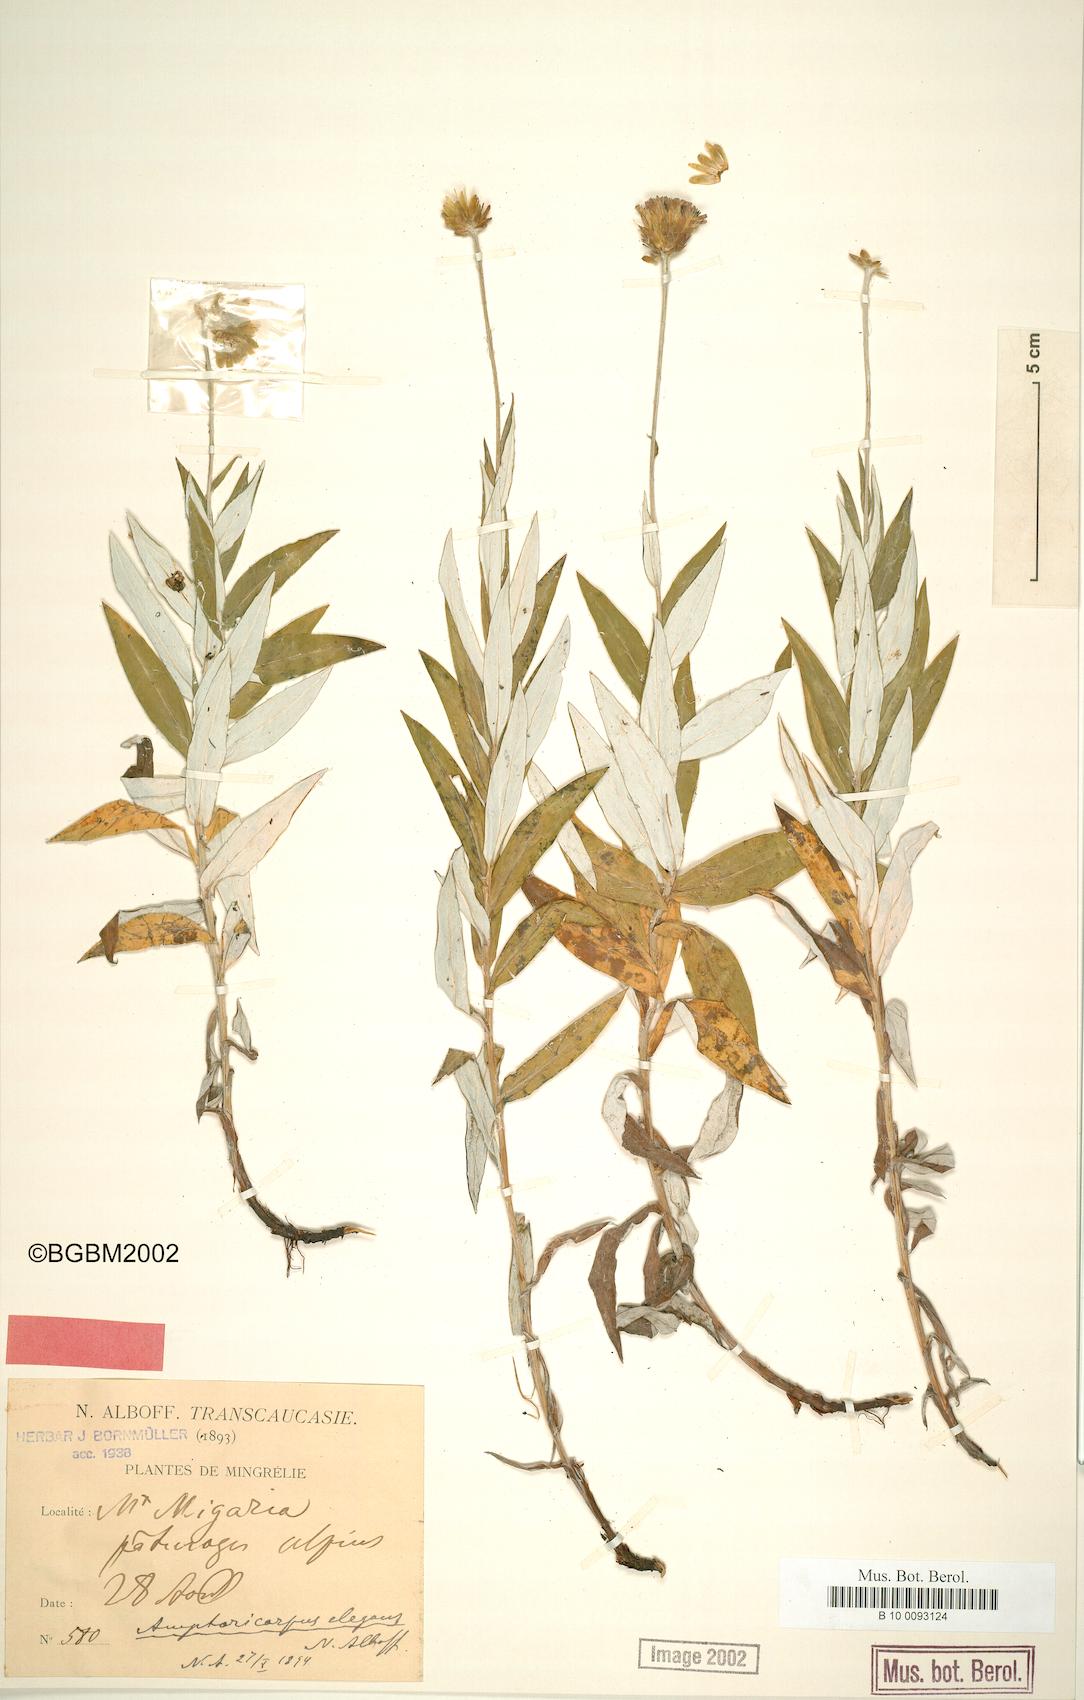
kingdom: Plantae
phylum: Tracheophyta
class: Magnoliopsida
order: Asterales
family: Asteraceae
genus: Amphoricarpos
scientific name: Amphoricarpos elegans
